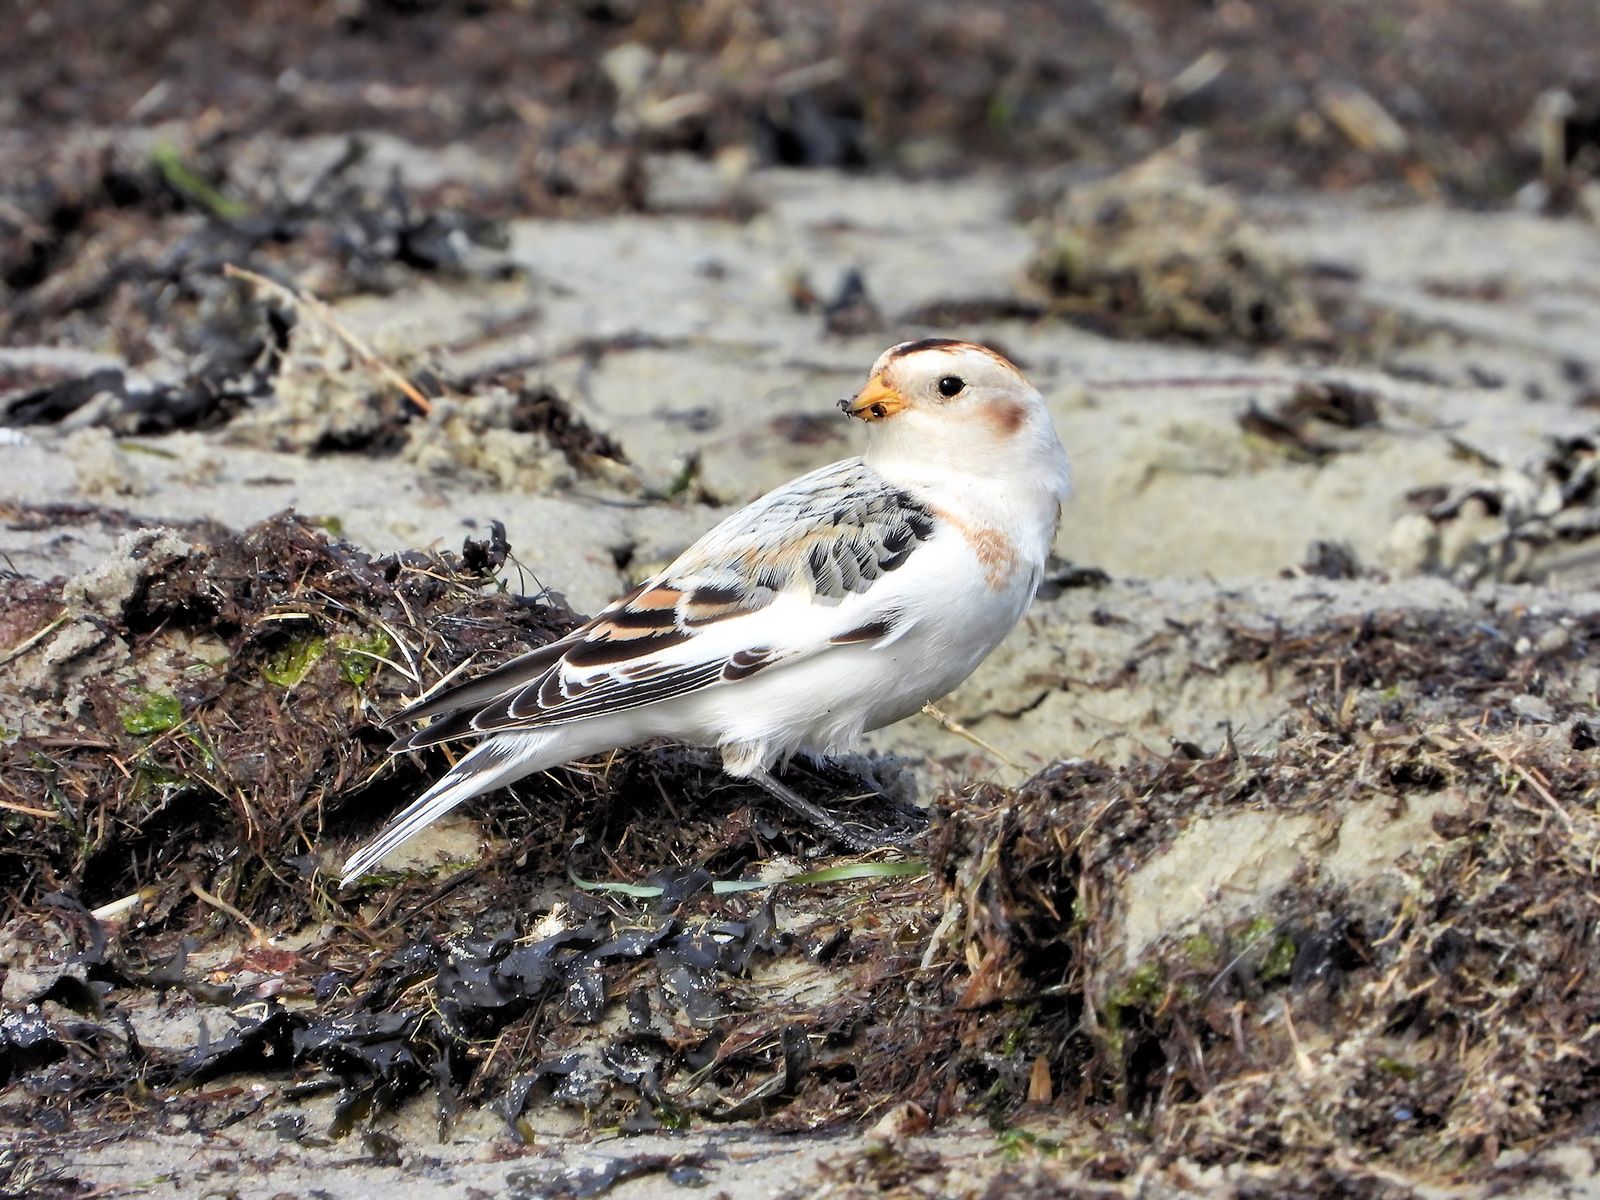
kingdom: Animalia
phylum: Chordata
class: Aves
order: Passeriformes
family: Calcariidae
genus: Plectrophenax
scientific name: Plectrophenax nivalis
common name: Snow bunting
